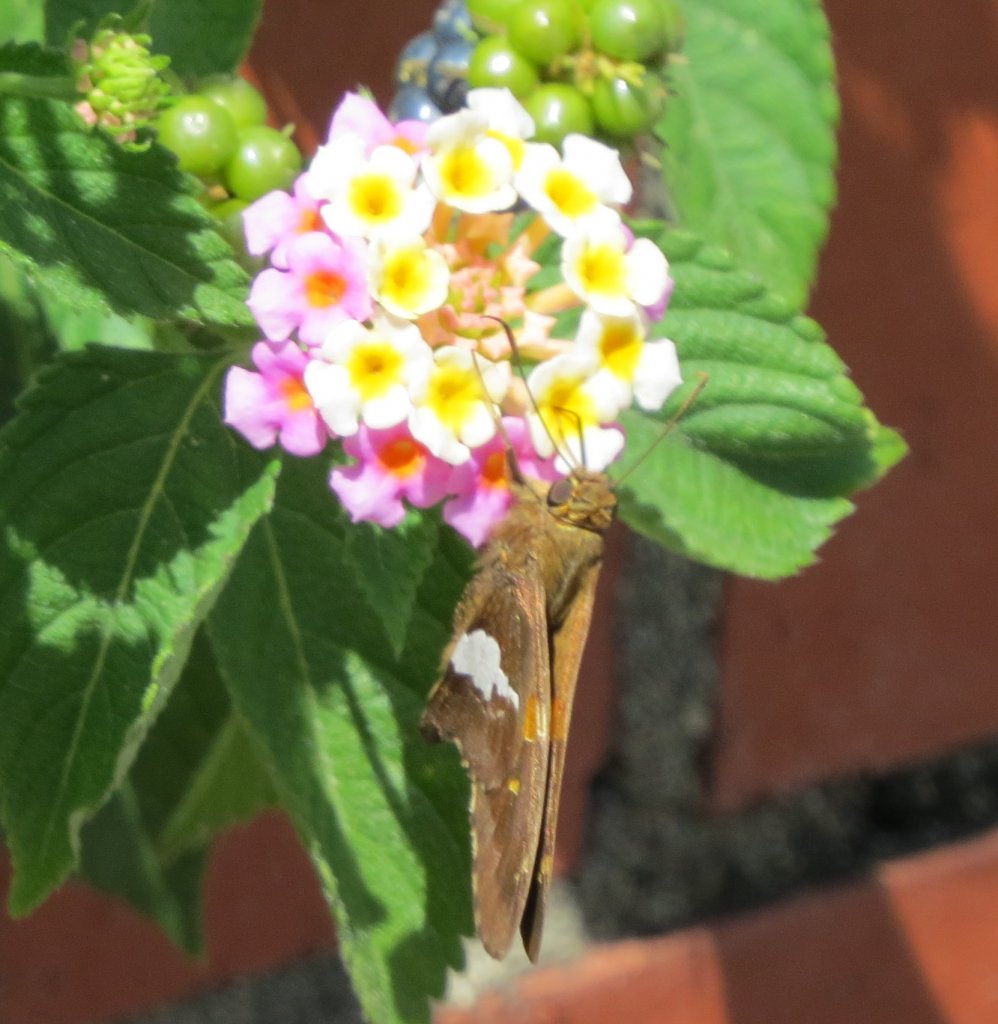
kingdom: Animalia
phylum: Arthropoda
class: Insecta
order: Lepidoptera
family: Hesperiidae
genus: Epargyreus
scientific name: Epargyreus clarus
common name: Silver-spotted Skipper
